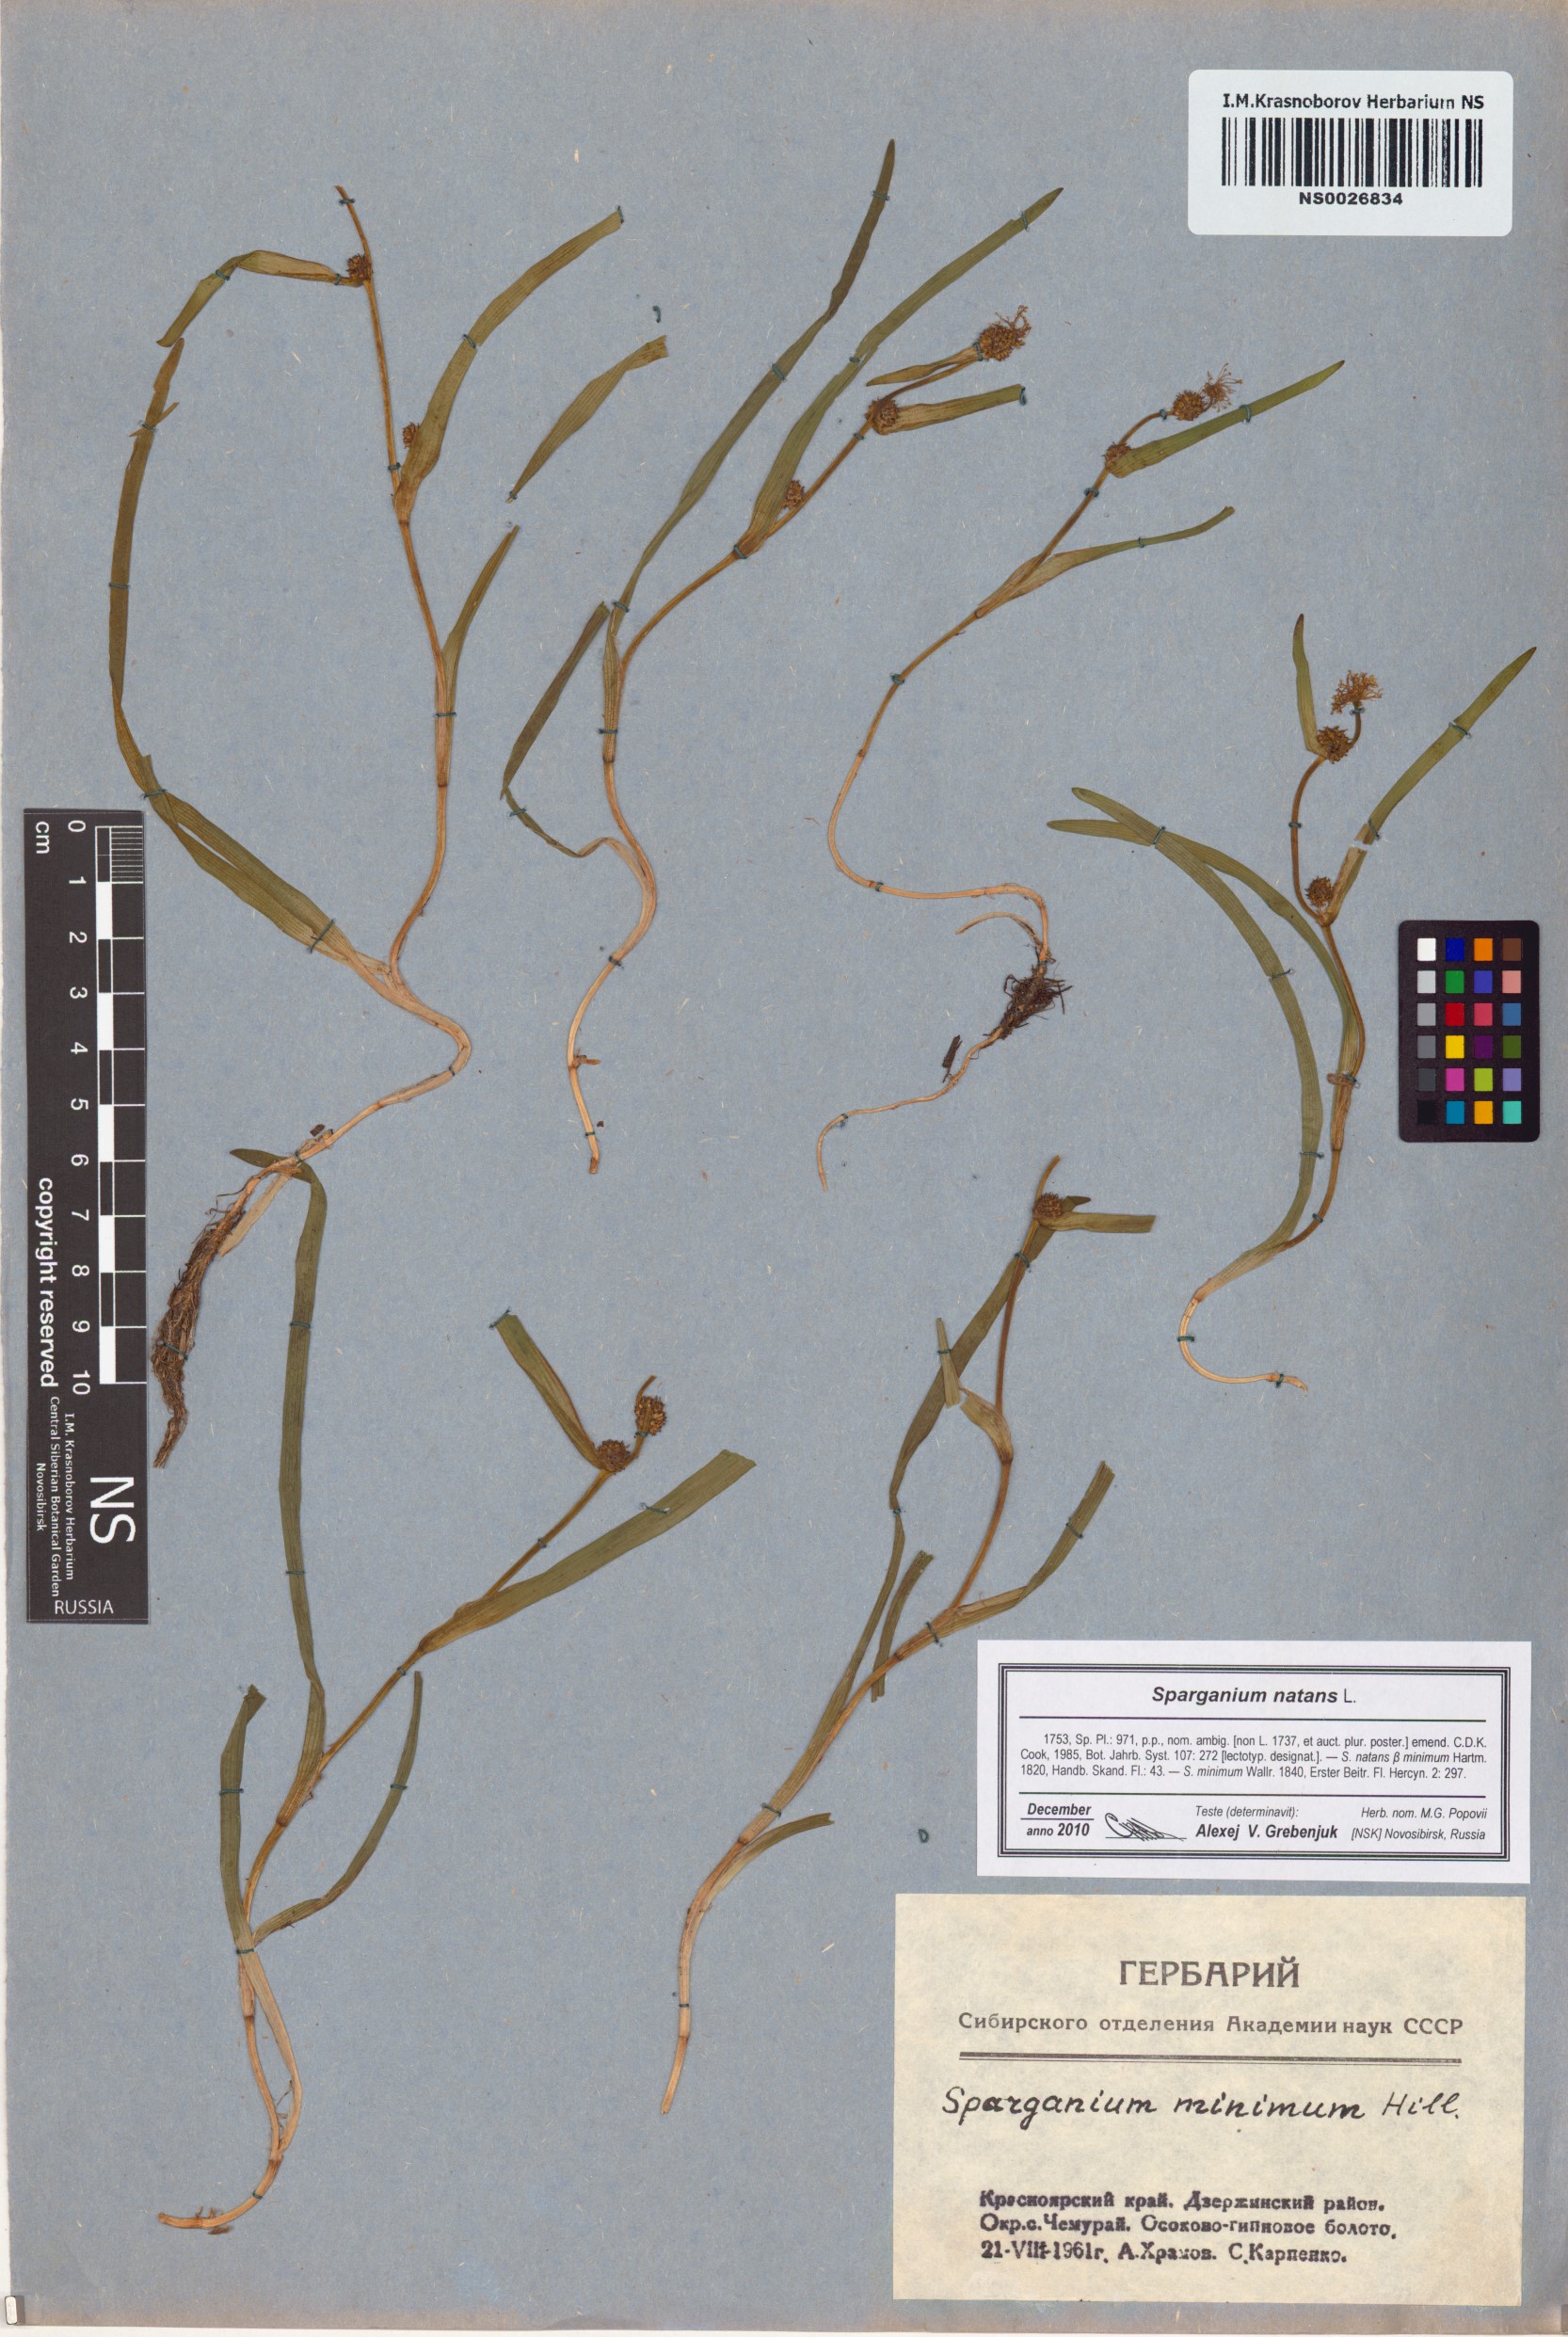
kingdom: Plantae
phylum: Tracheophyta
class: Liliopsida
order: Poales
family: Typhaceae
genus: Sparganium
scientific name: Sparganium natans
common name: Least bur-reed
